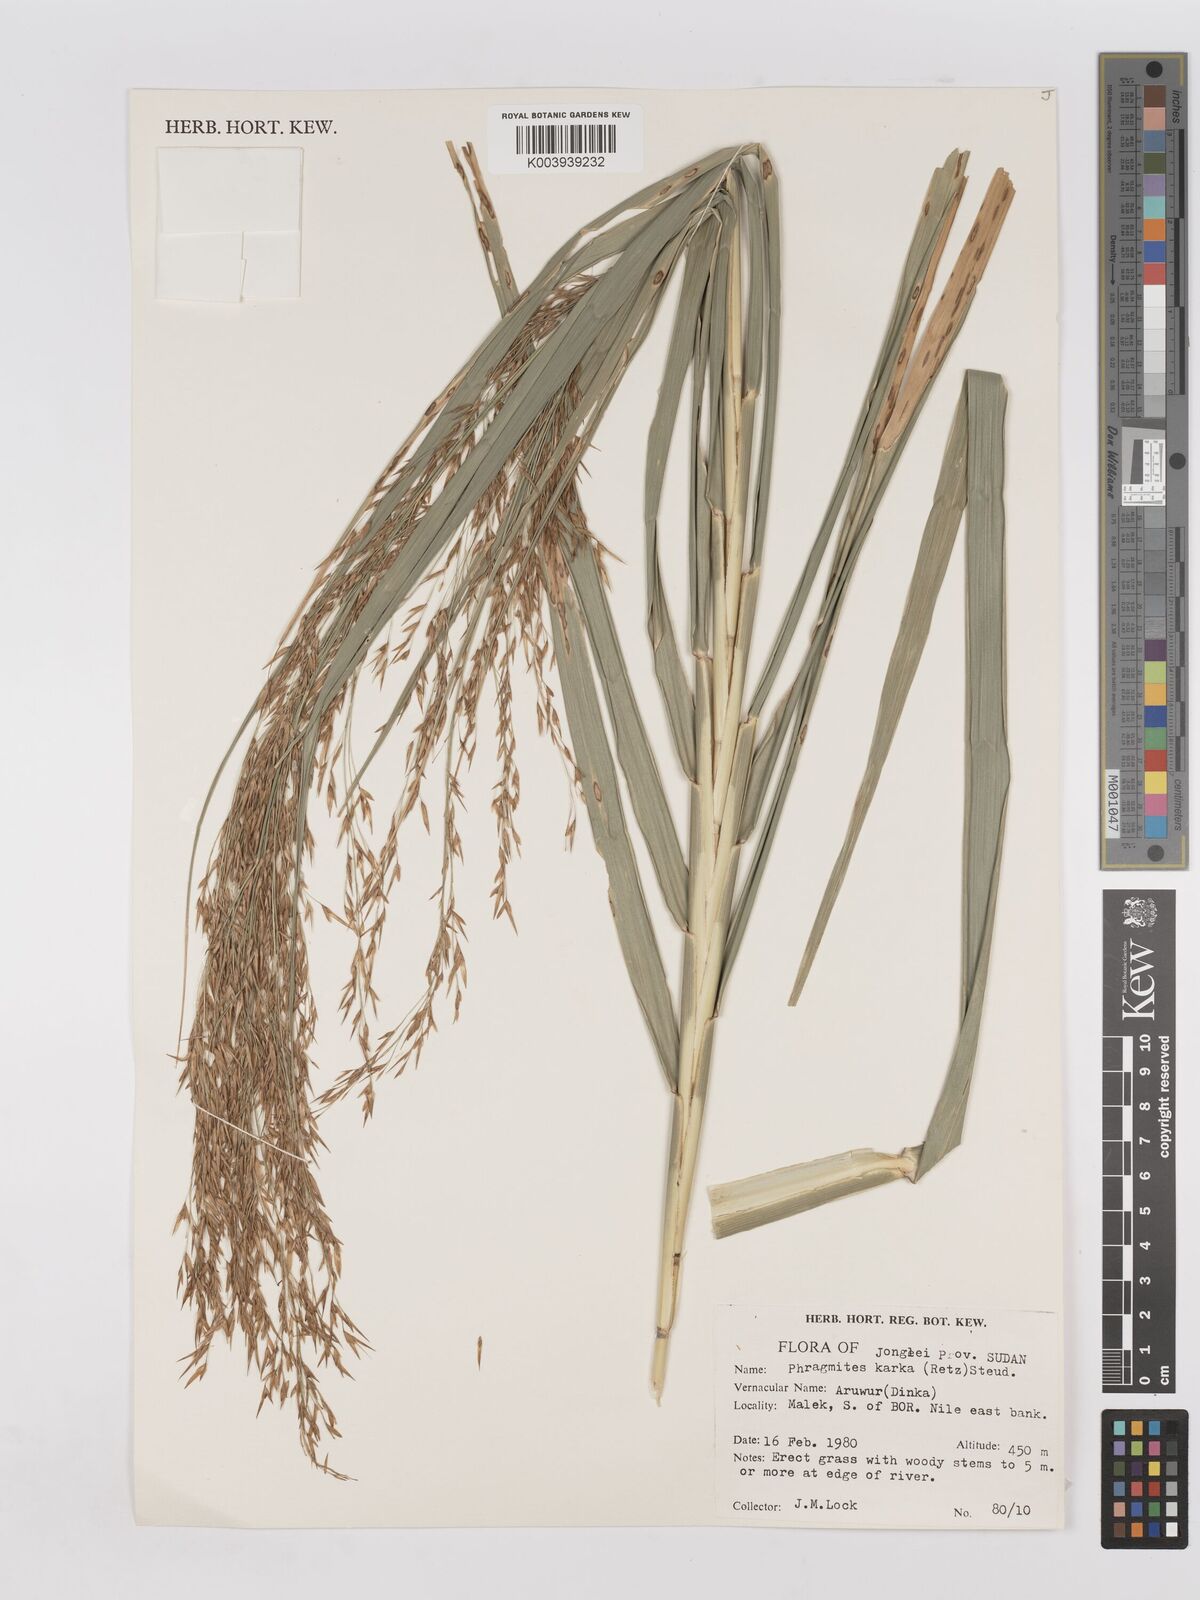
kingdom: Plantae
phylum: Tracheophyta
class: Liliopsida
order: Poales
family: Poaceae
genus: Phragmites
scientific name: Phragmites karka
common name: Tropical reed
